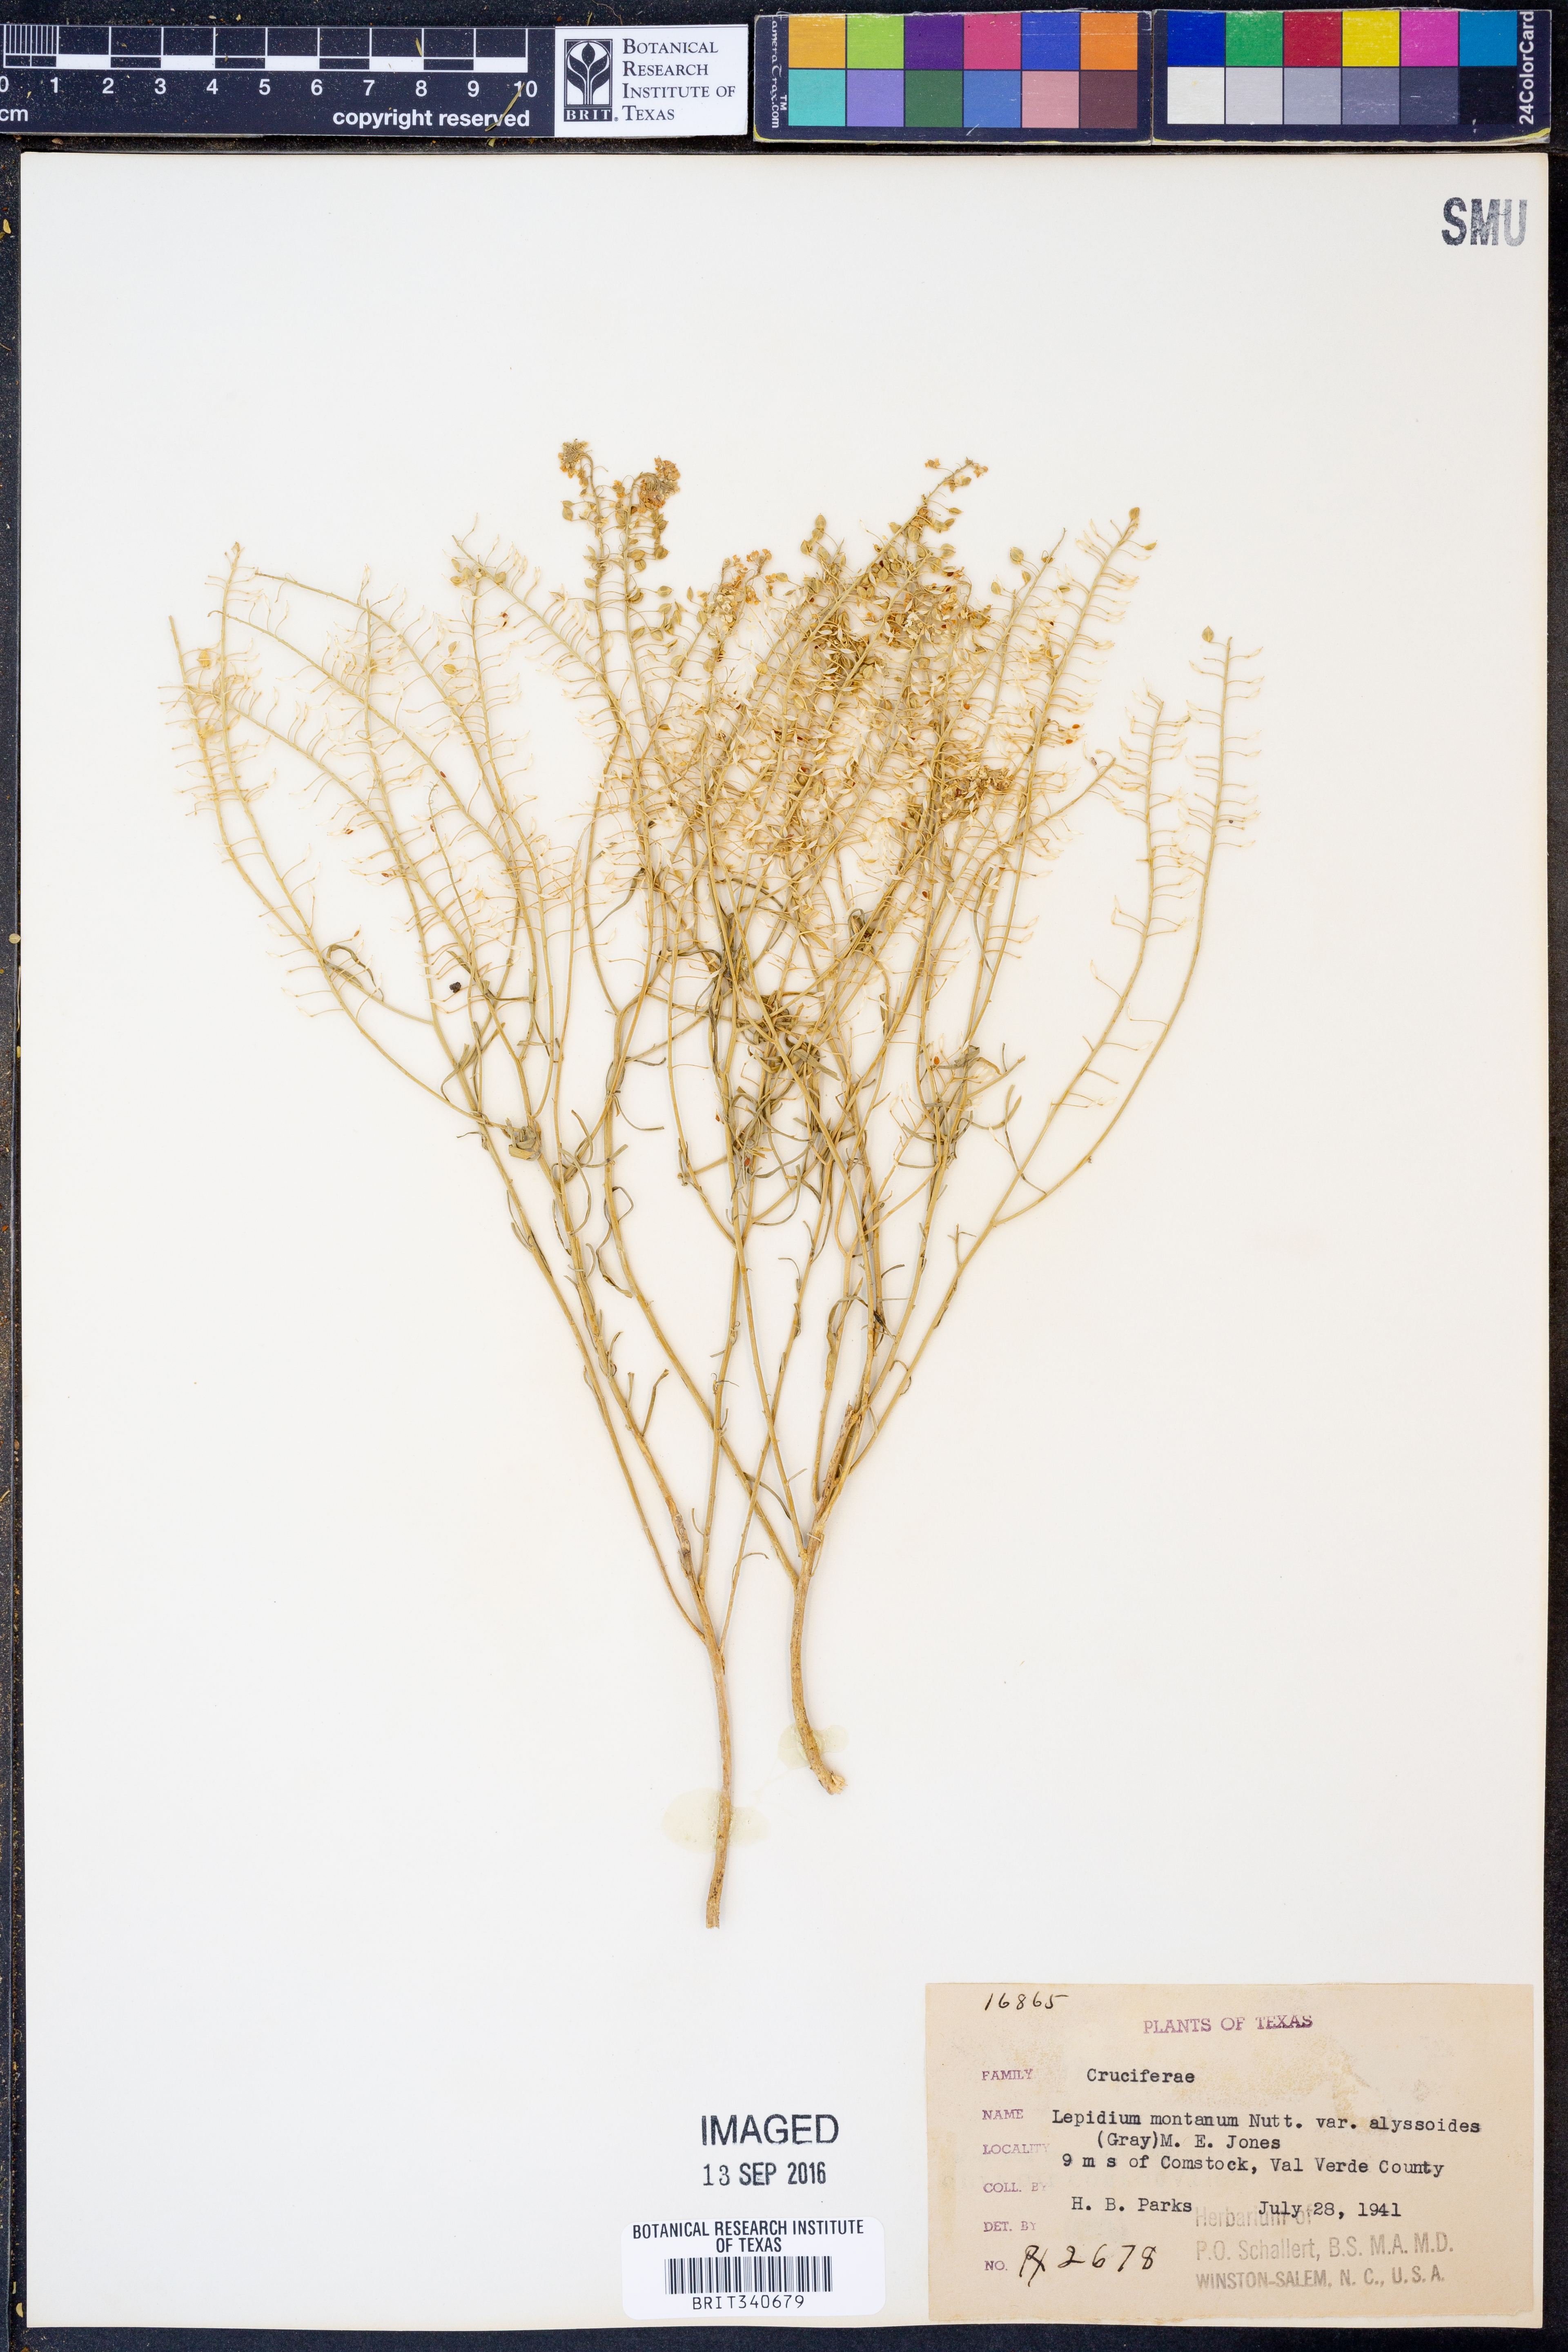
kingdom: Plantae
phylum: Tracheophyta
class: Magnoliopsida
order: Brassicales
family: Brassicaceae
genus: Lepidium
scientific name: Lepidium alyssoides
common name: Mesa pepperweed
